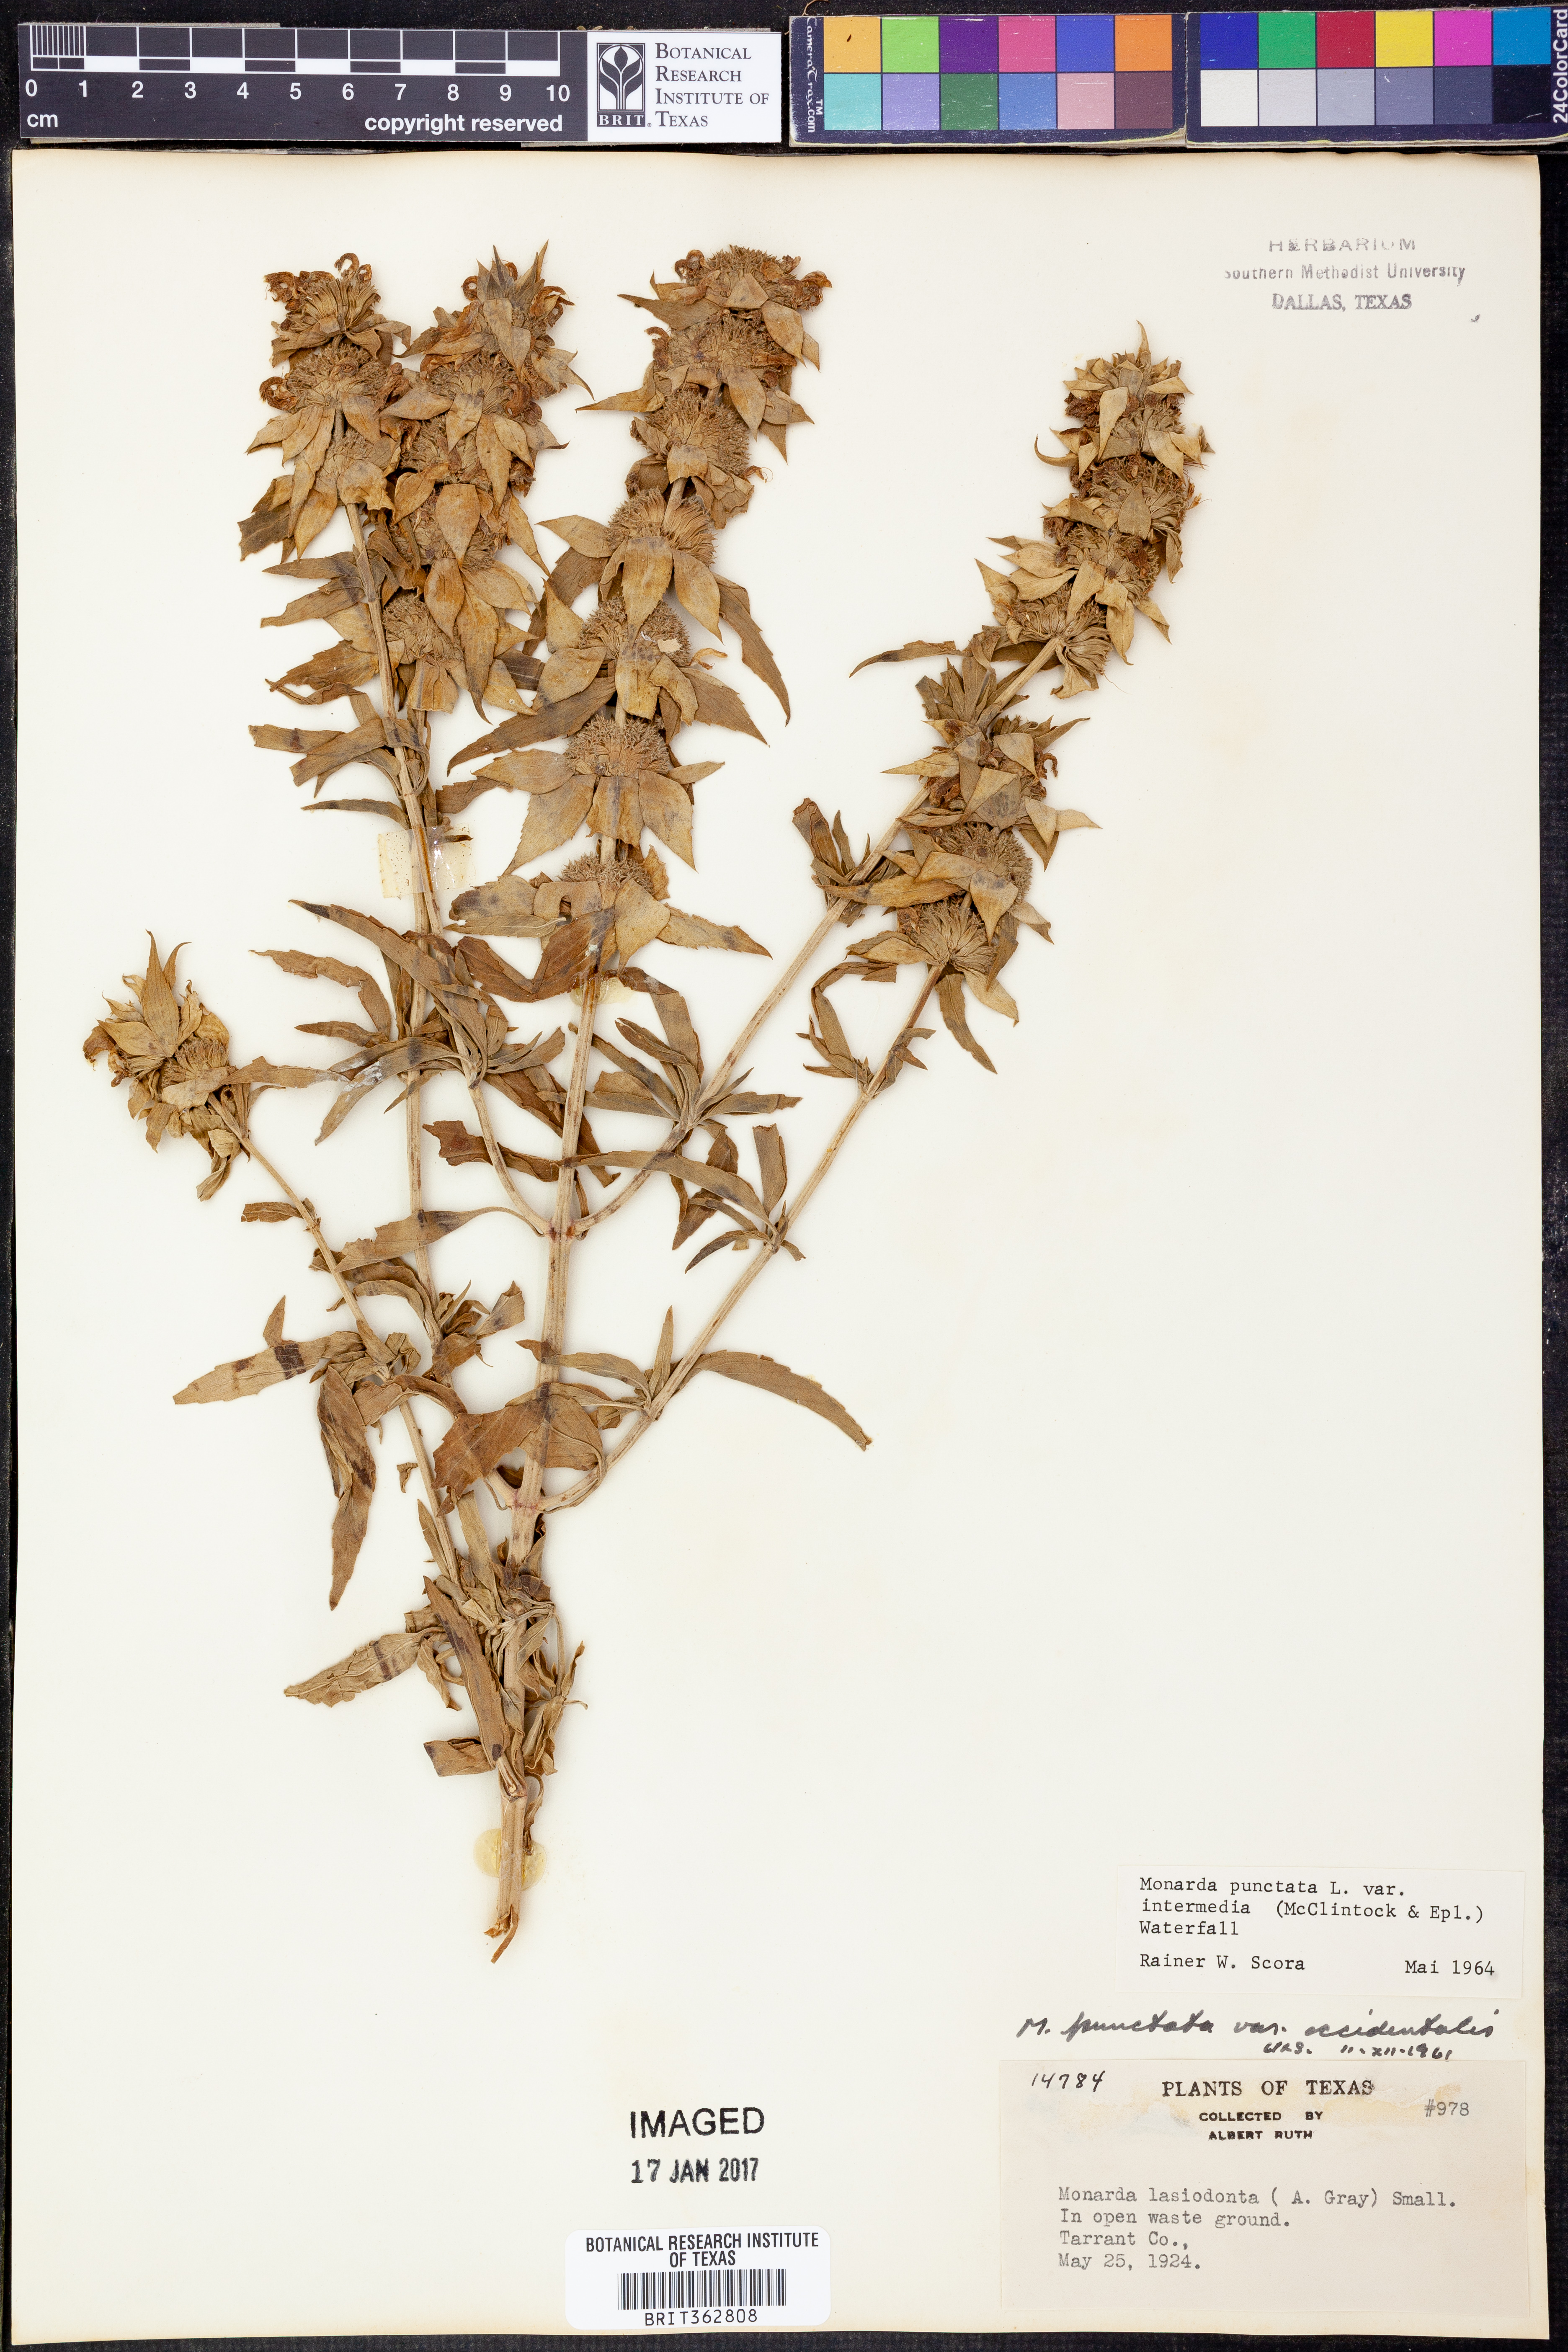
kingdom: Plantae
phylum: Tracheophyta
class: Magnoliopsida
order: Lamiales
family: Lamiaceae
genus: Monarda
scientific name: Monarda punctata
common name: Dotted monarda
